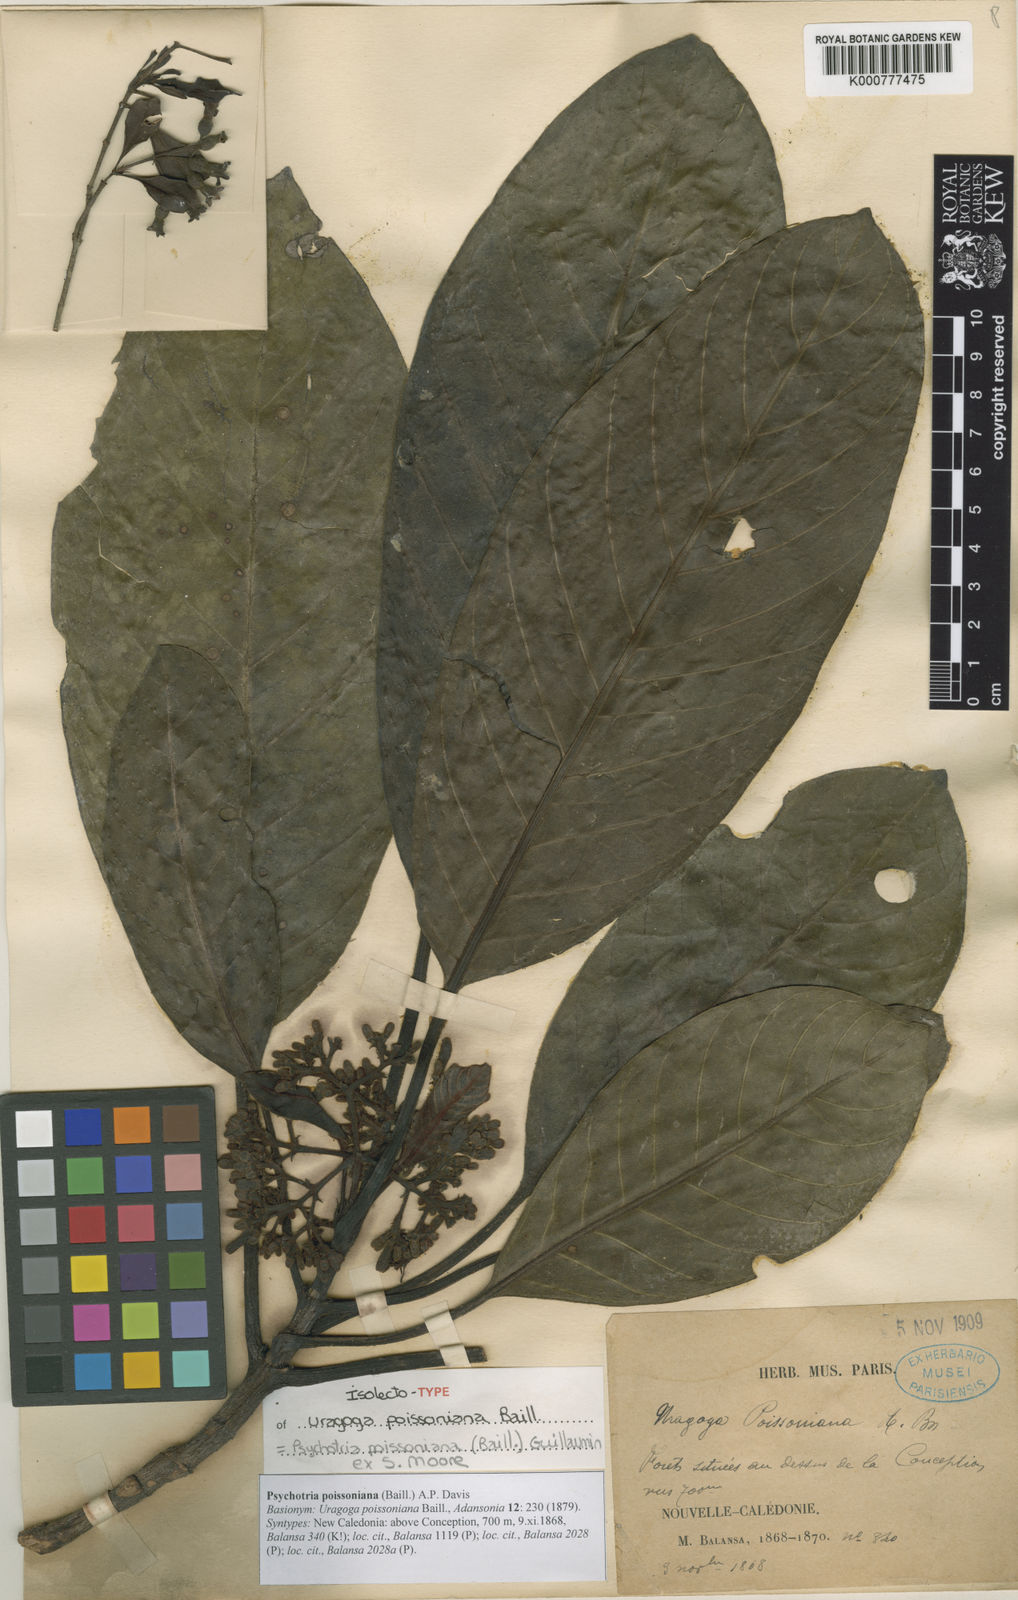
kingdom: Plantae
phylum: Tracheophyta
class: Magnoliopsida
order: Gentianales
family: Rubiaceae
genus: Psychotria
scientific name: Psychotria
